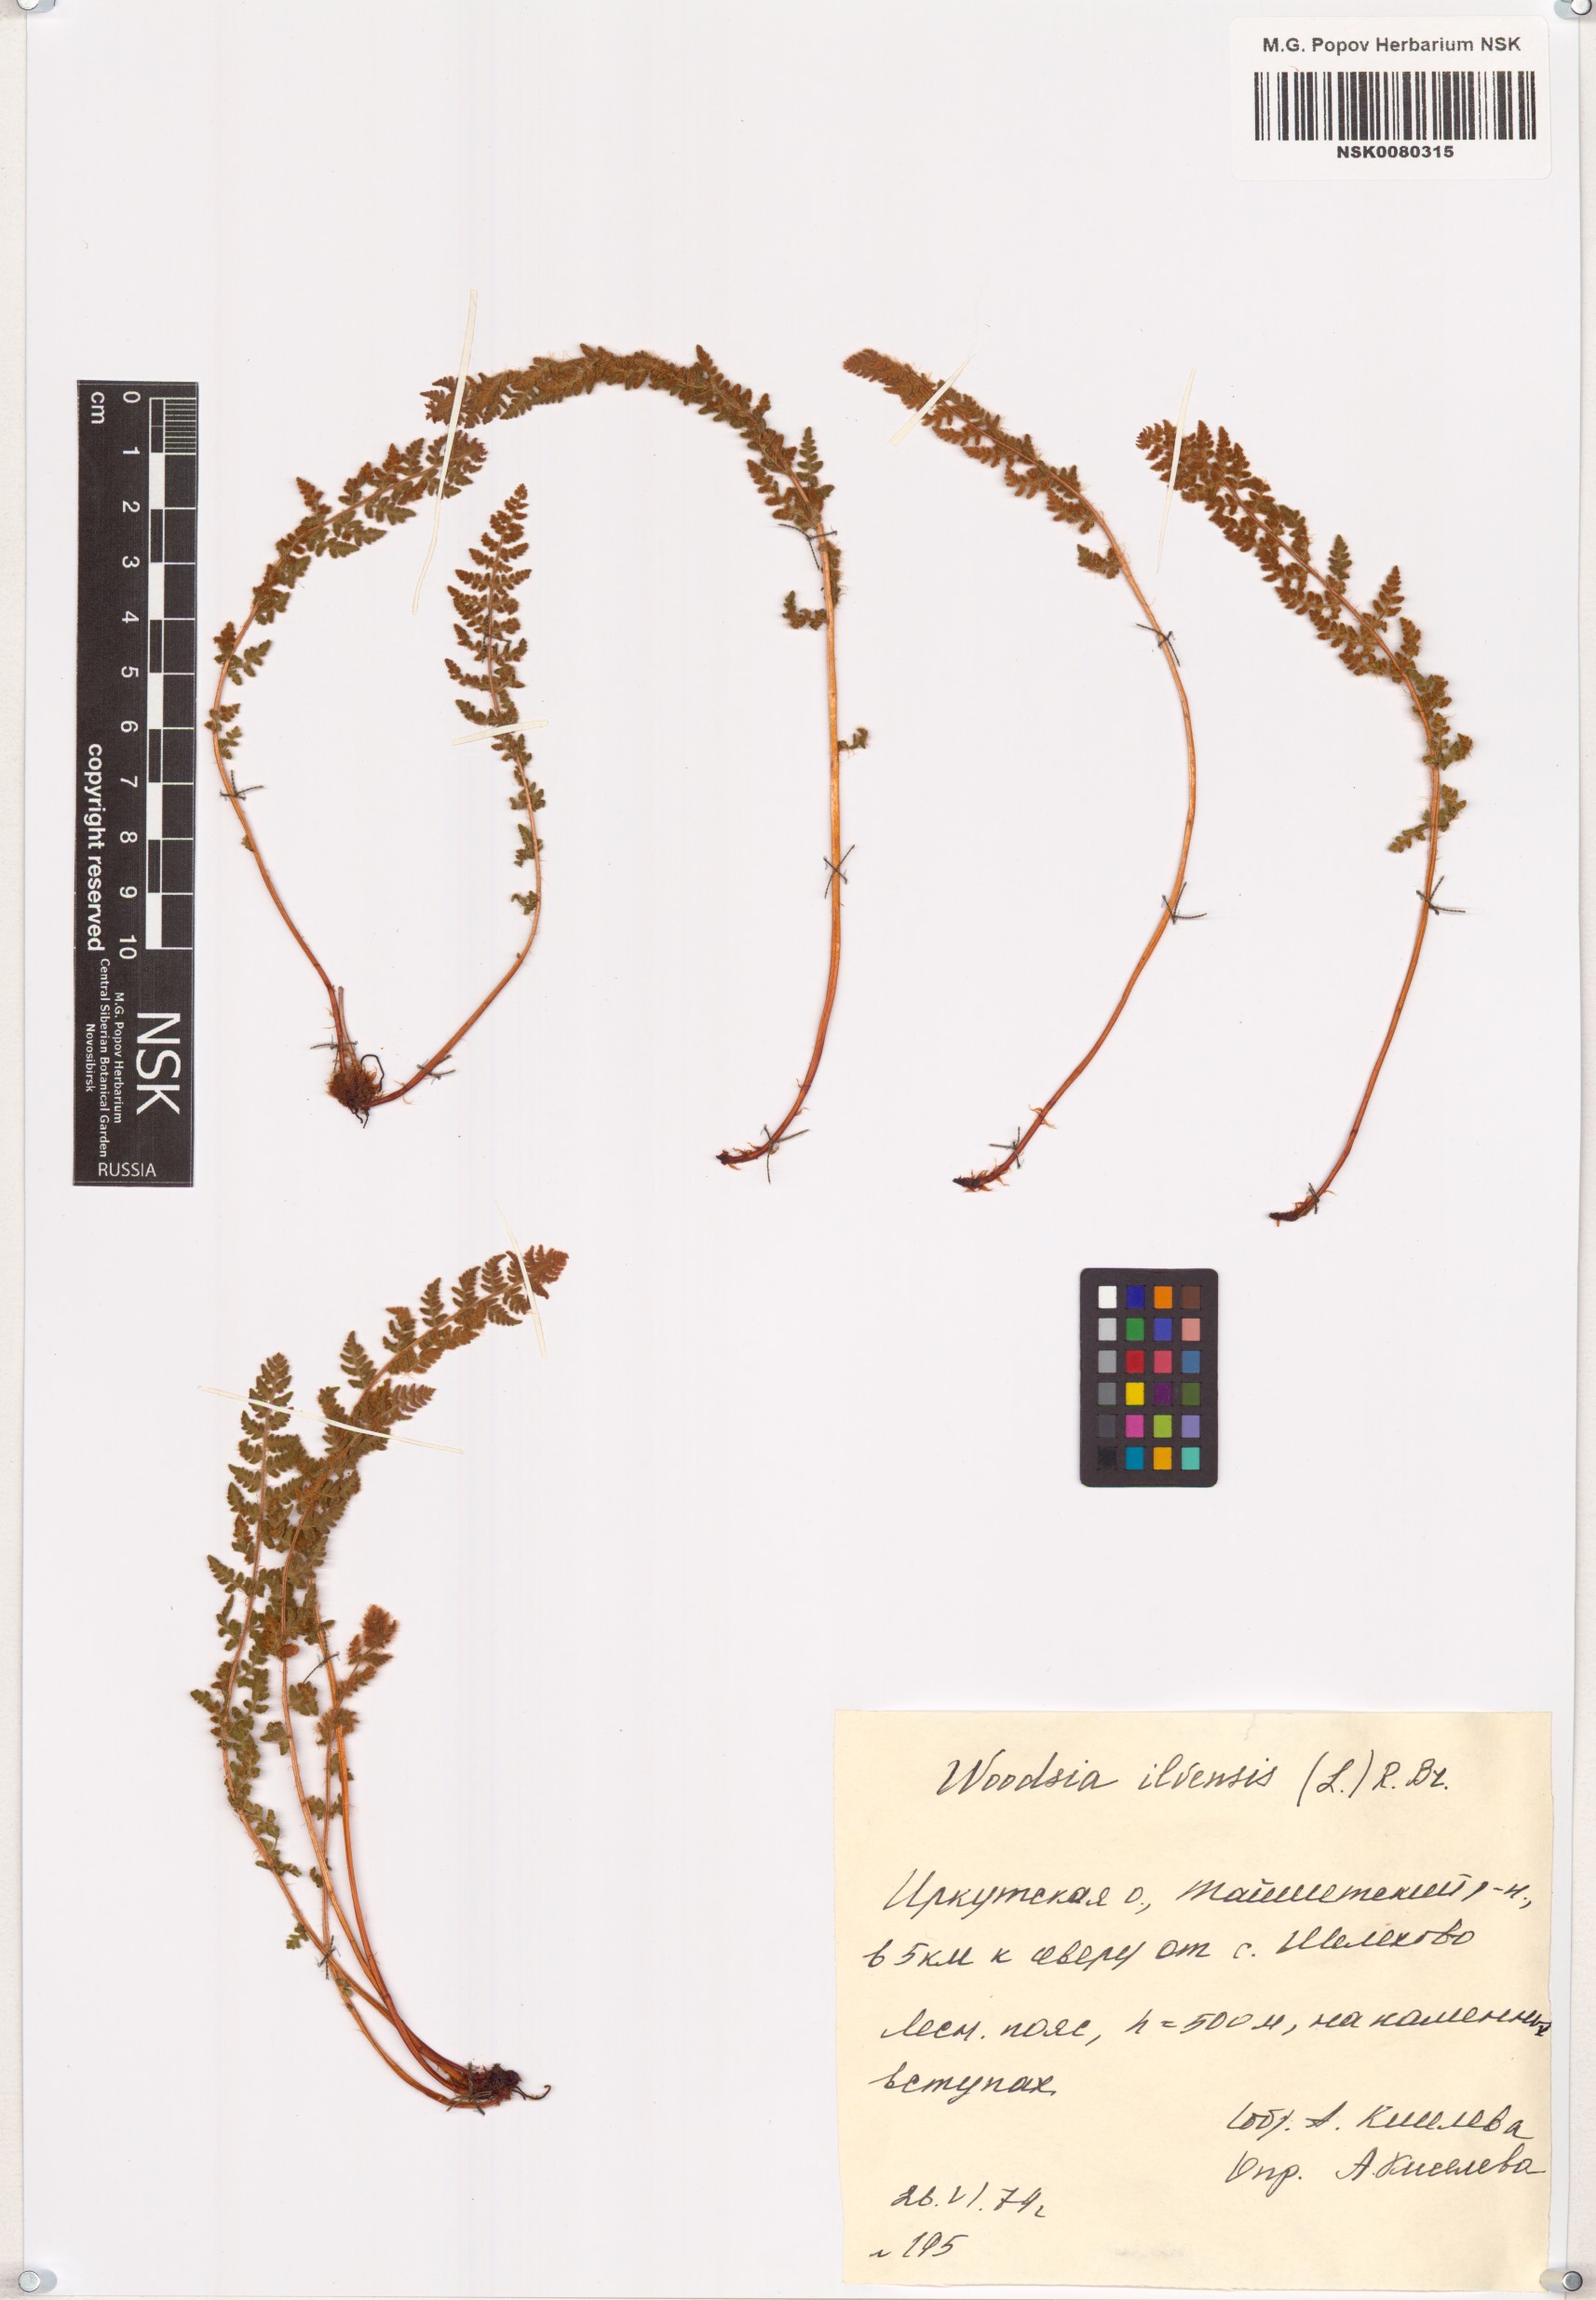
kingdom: Plantae
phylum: Tracheophyta
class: Polypodiopsida
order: Polypodiales
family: Woodsiaceae
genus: Woodsia
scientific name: Woodsia ilvensis
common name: Fragrant woodsia
